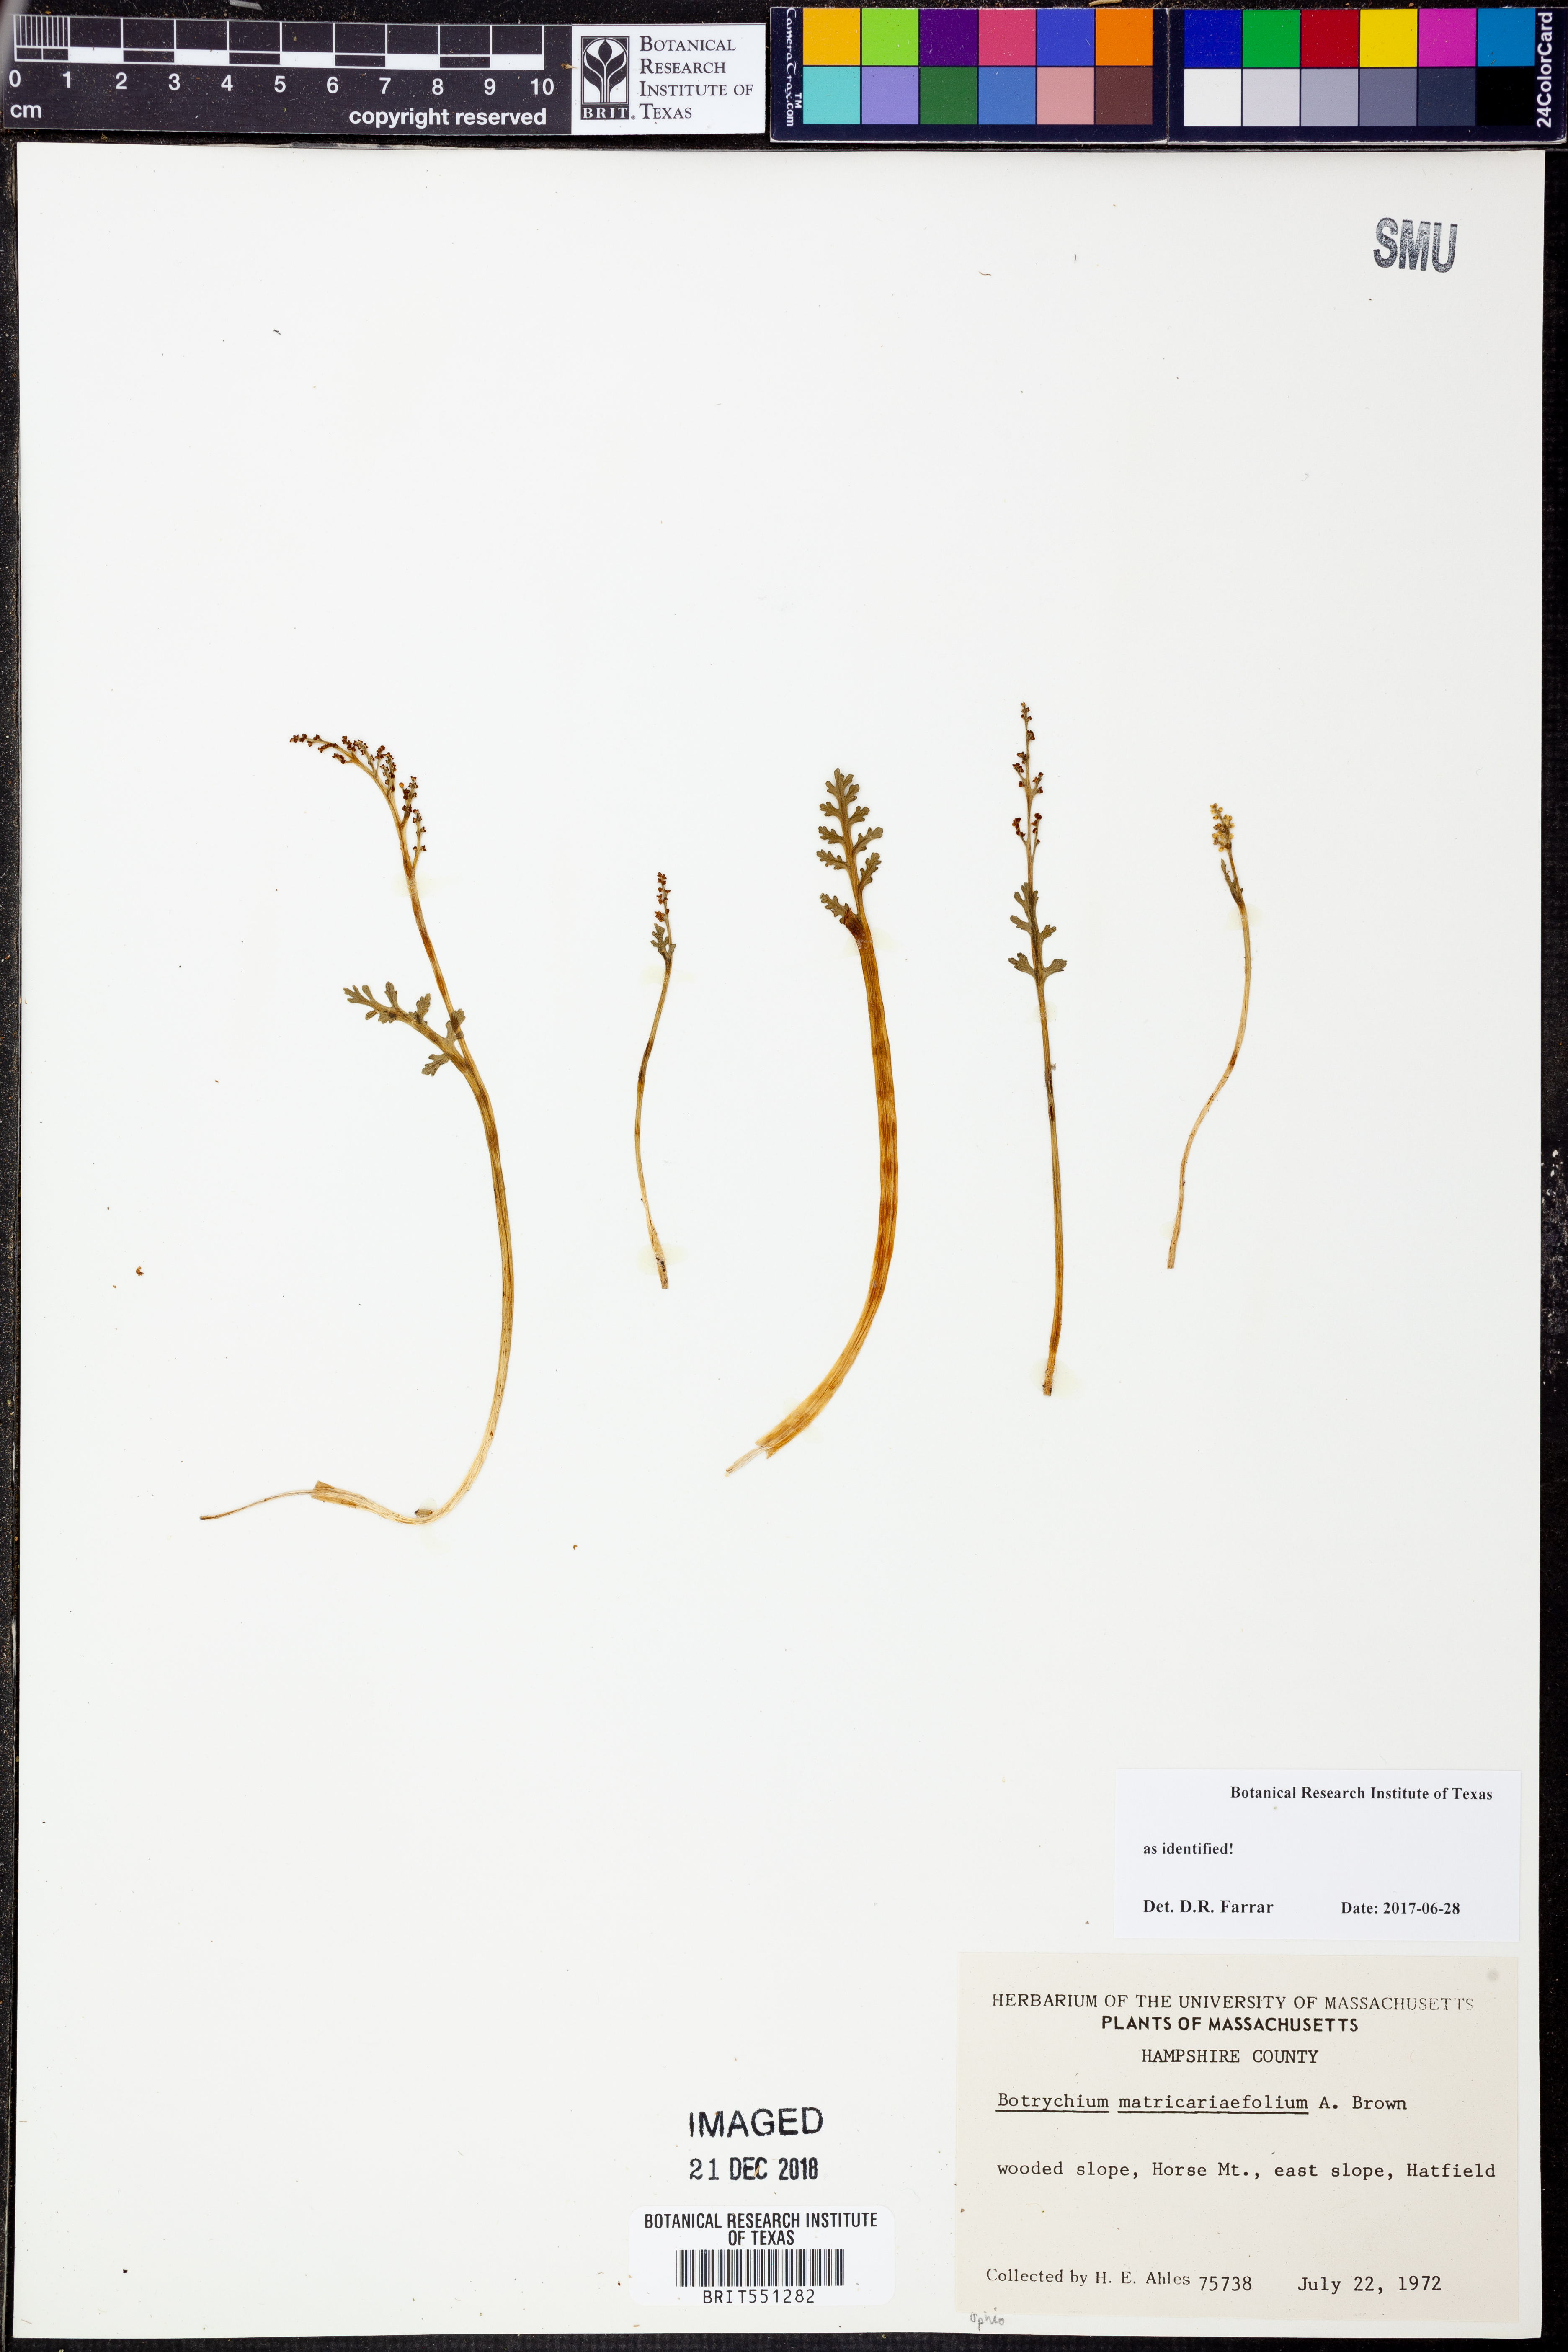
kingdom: Plantae
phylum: Tracheophyta
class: Polypodiopsida
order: Ophioglossales
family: Ophioglossaceae
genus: Botrychium
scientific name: Botrychium matricariifolium
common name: Branched moonwort
